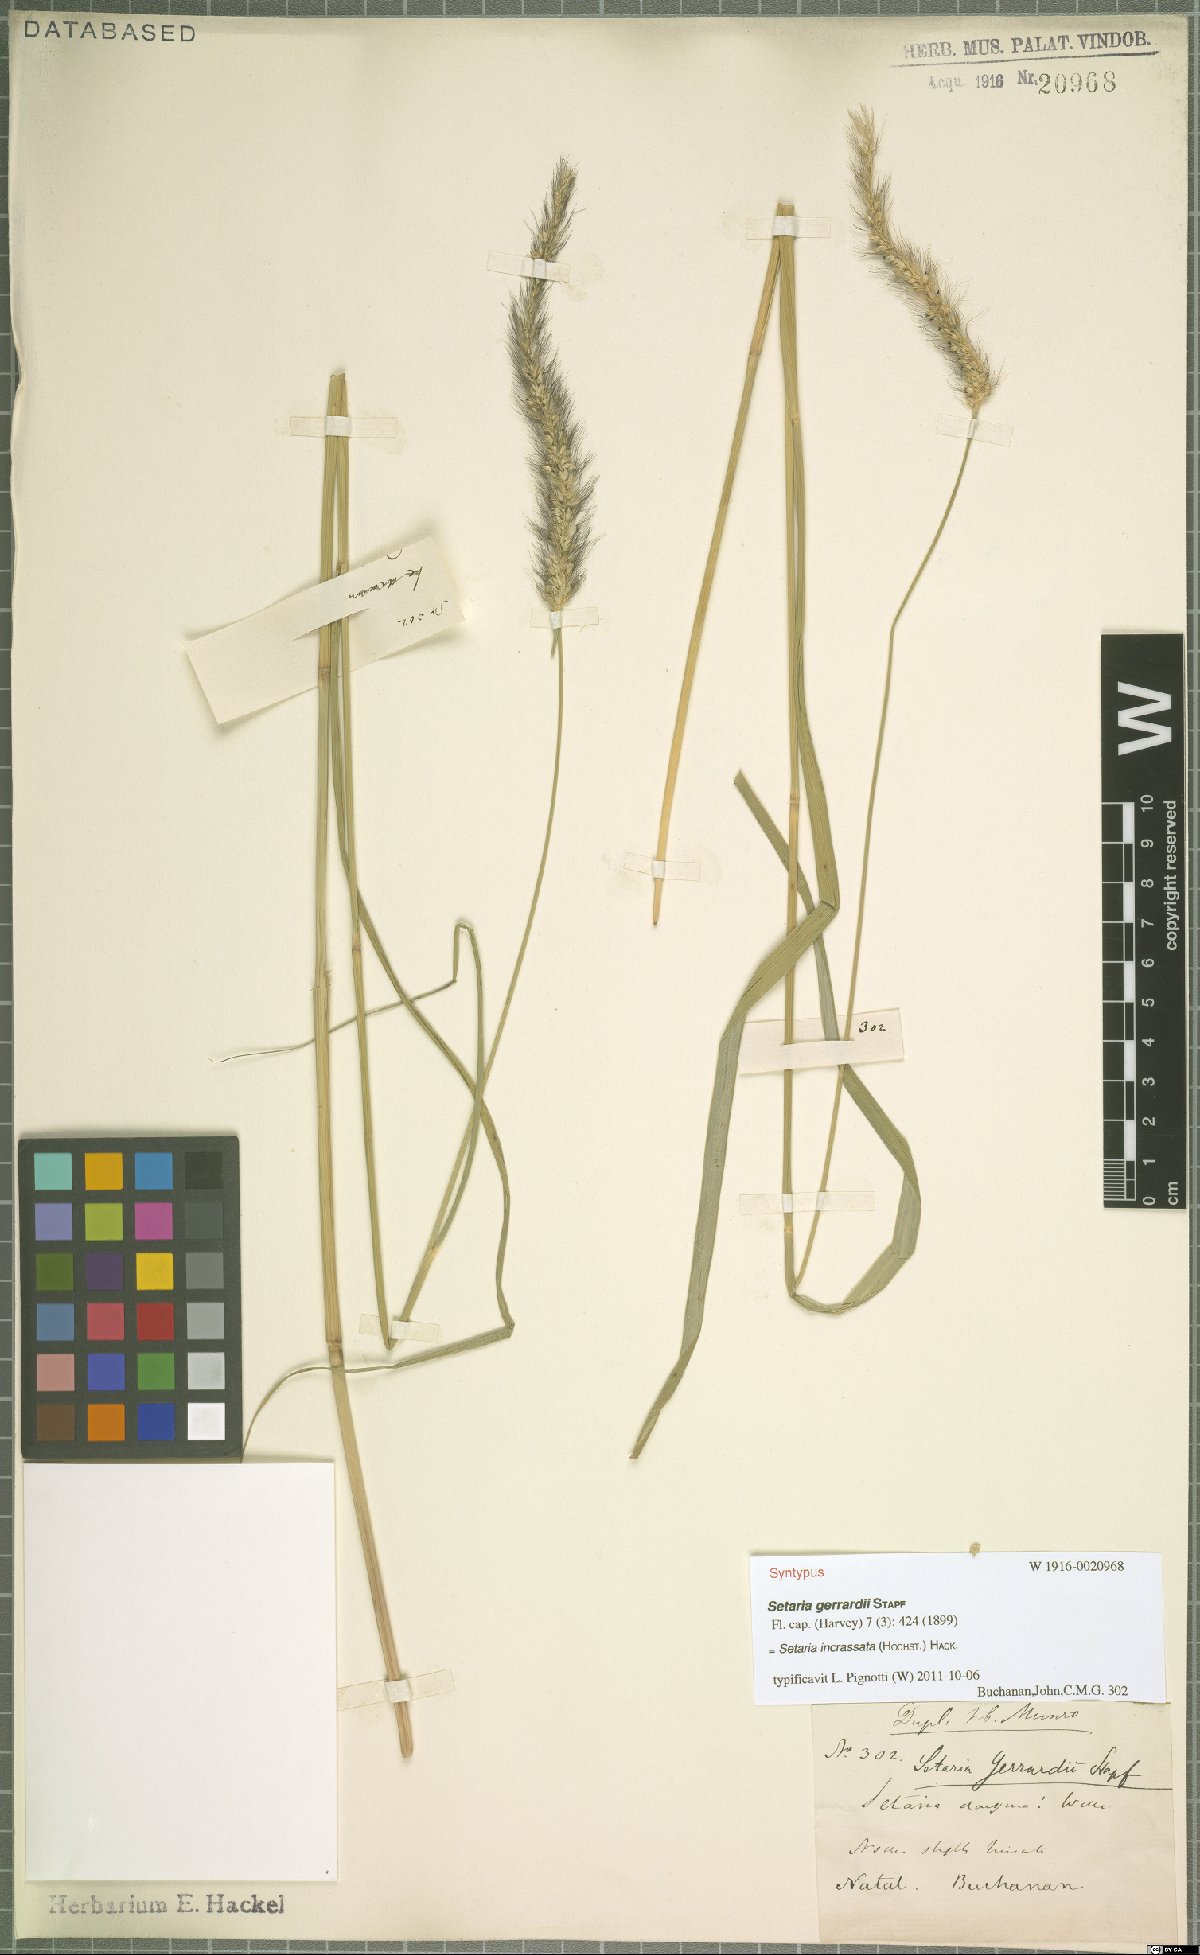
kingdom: Plantae
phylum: Tracheophyta
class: Liliopsida
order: Poales
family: Poaceae
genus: Setaria
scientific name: Setaria incrassata
